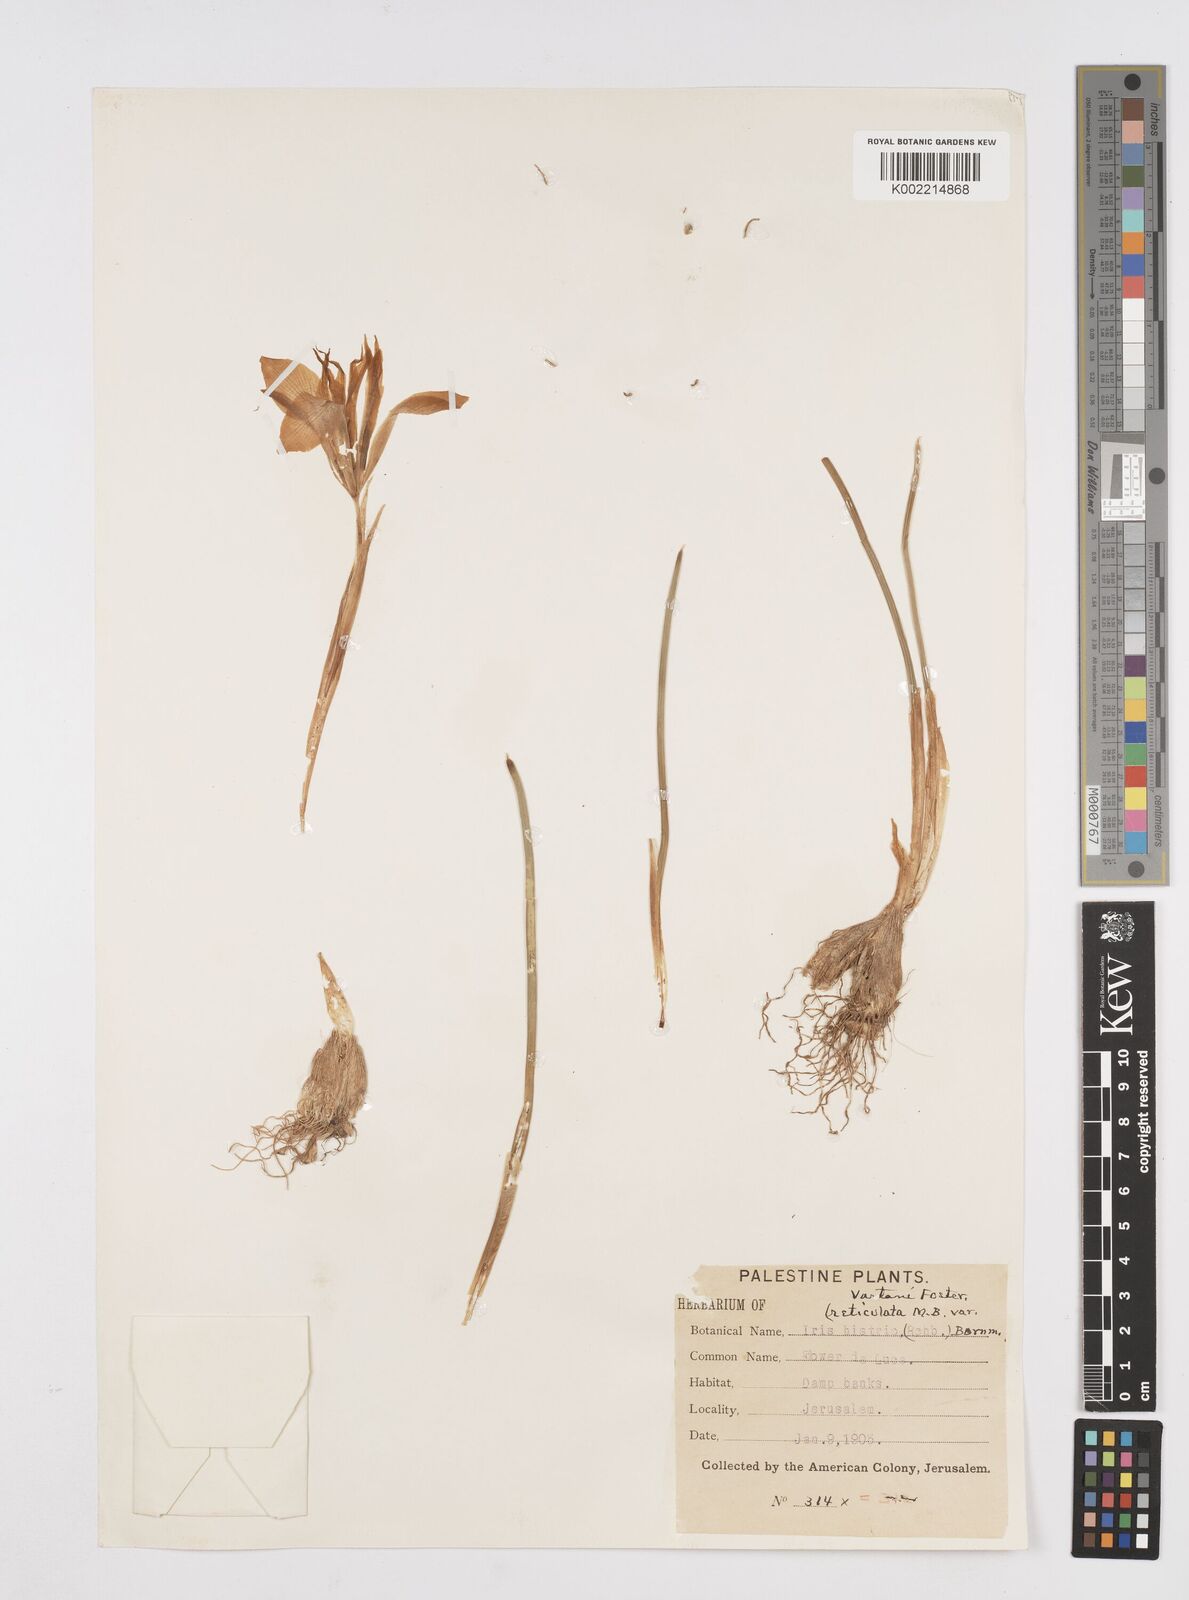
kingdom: Plantae
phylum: Tracheophyta
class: Liliopsida
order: Asparagales
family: Iridaceae
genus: Iris
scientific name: Iris vartanii
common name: Vartanii iris
